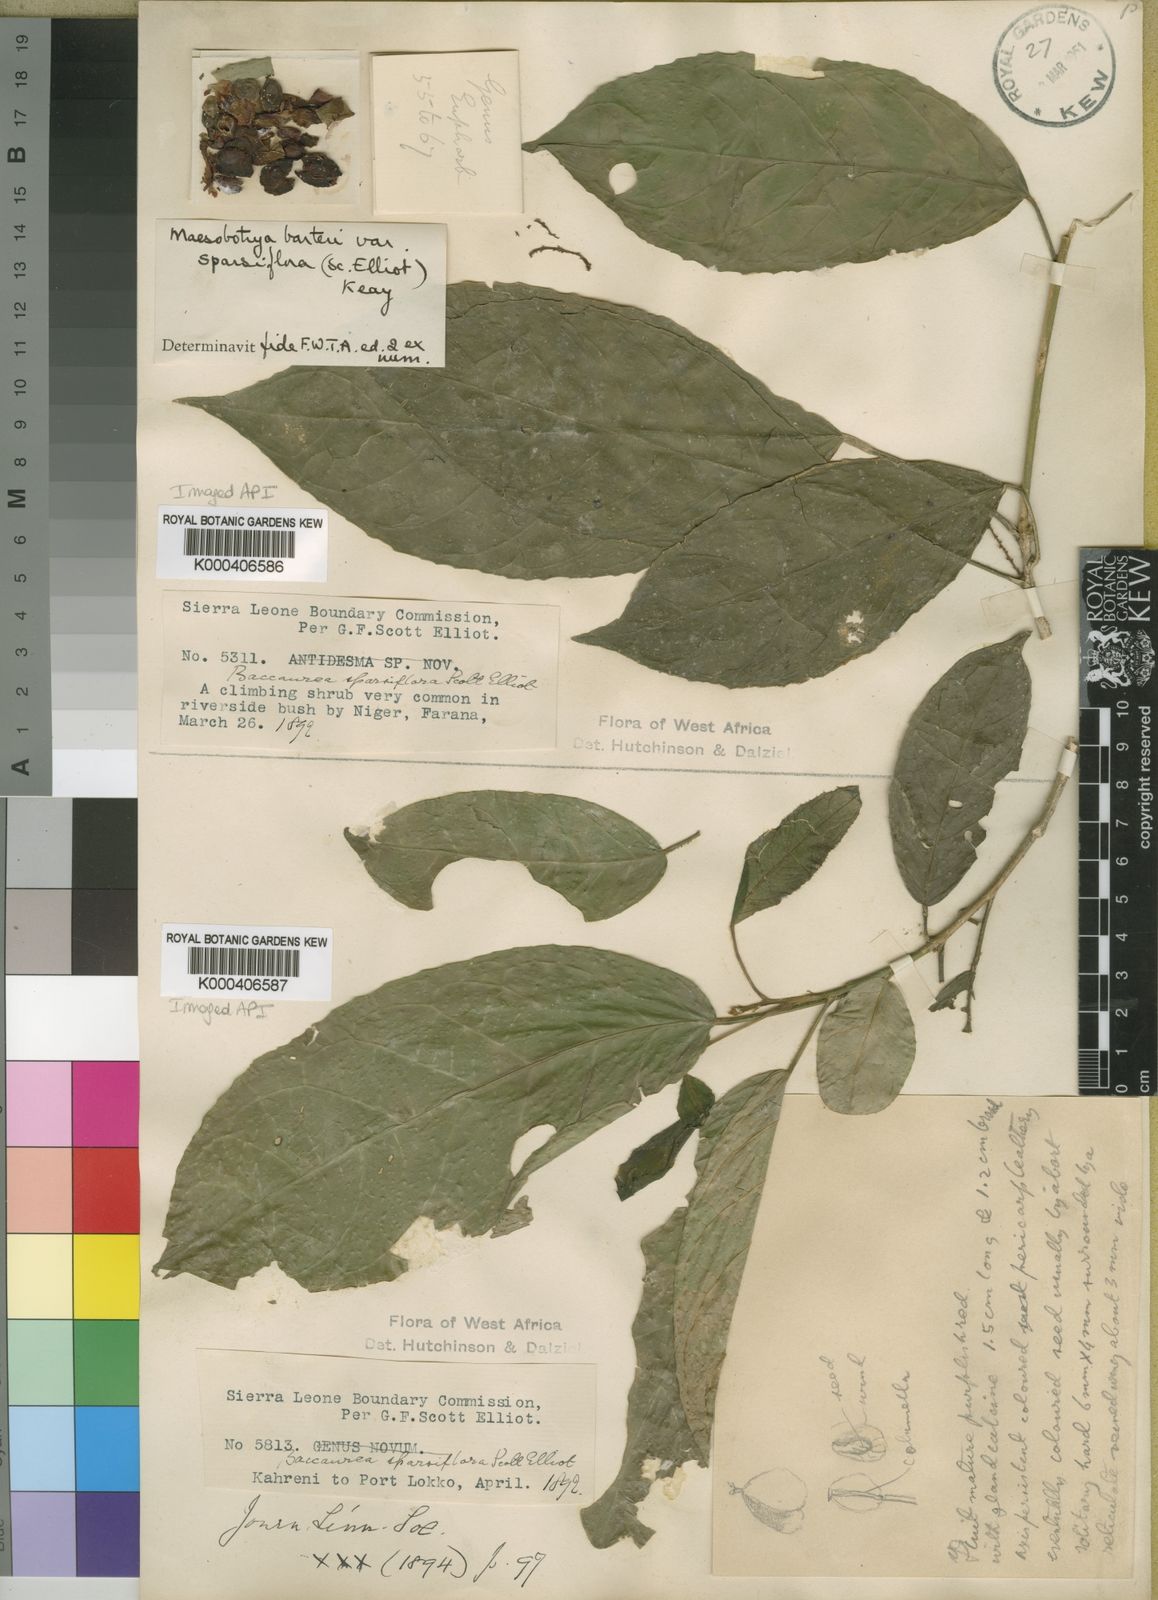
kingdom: Plantae
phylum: Tracheophyta
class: Magnoliopsida
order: Malpighiales
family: Phyllanthaceae
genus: Maesobotrya
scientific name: Maesobotrya barteri
